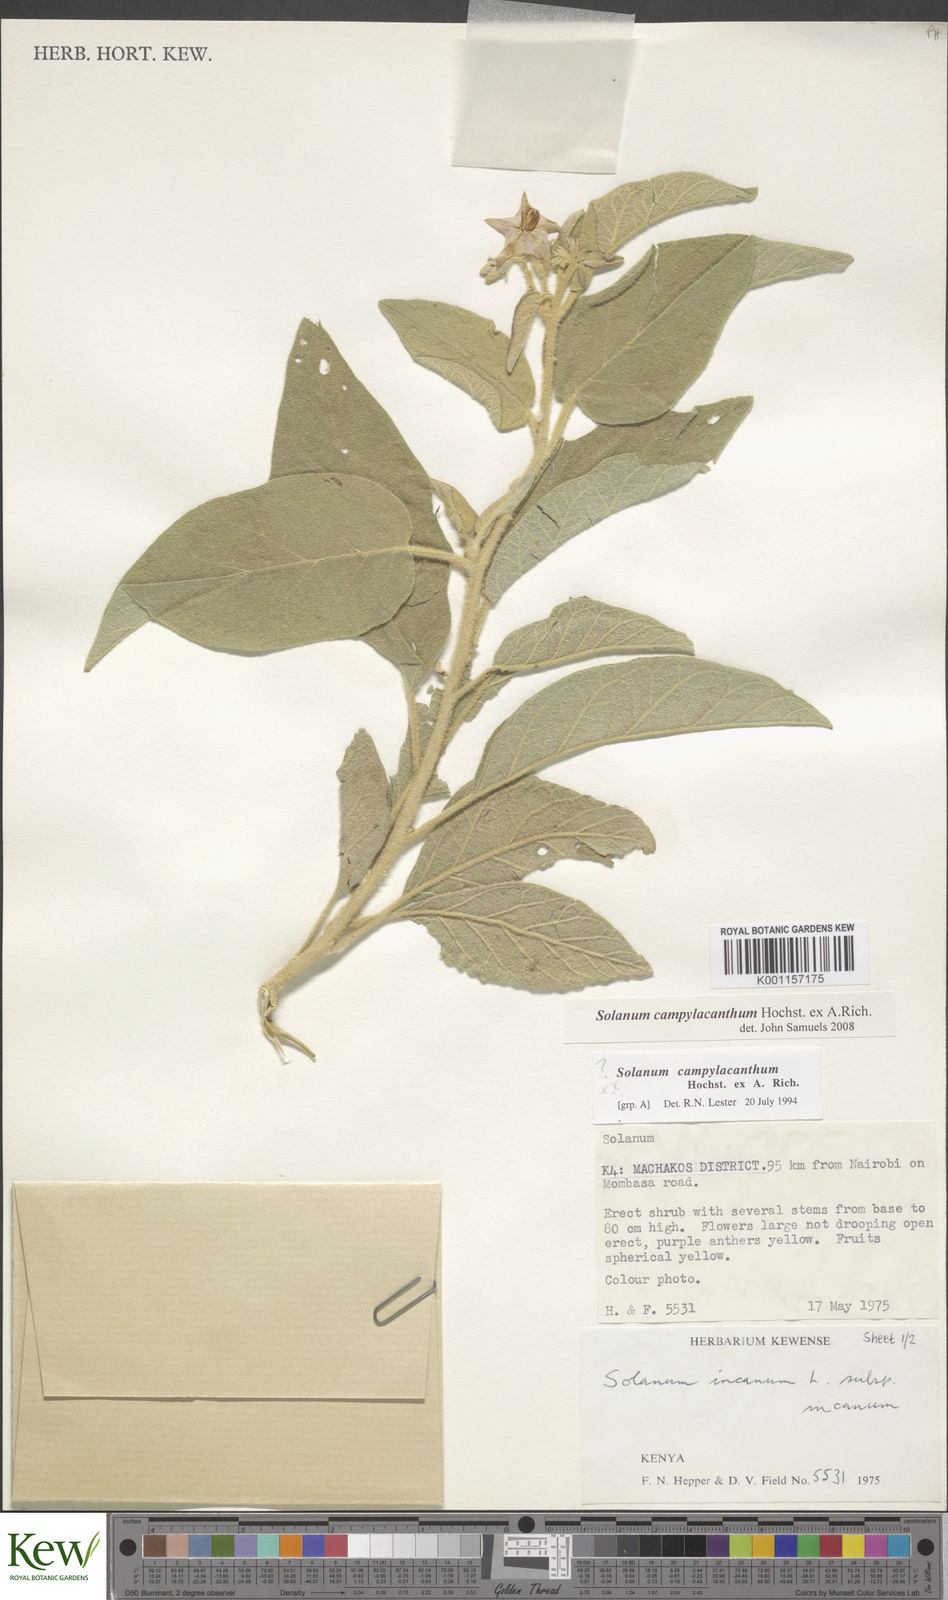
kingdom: Plantae
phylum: Tracheophyta
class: Magnoliopsida
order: Solanales
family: Solanaceae
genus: Solanum
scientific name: Solanum campylacanthum
